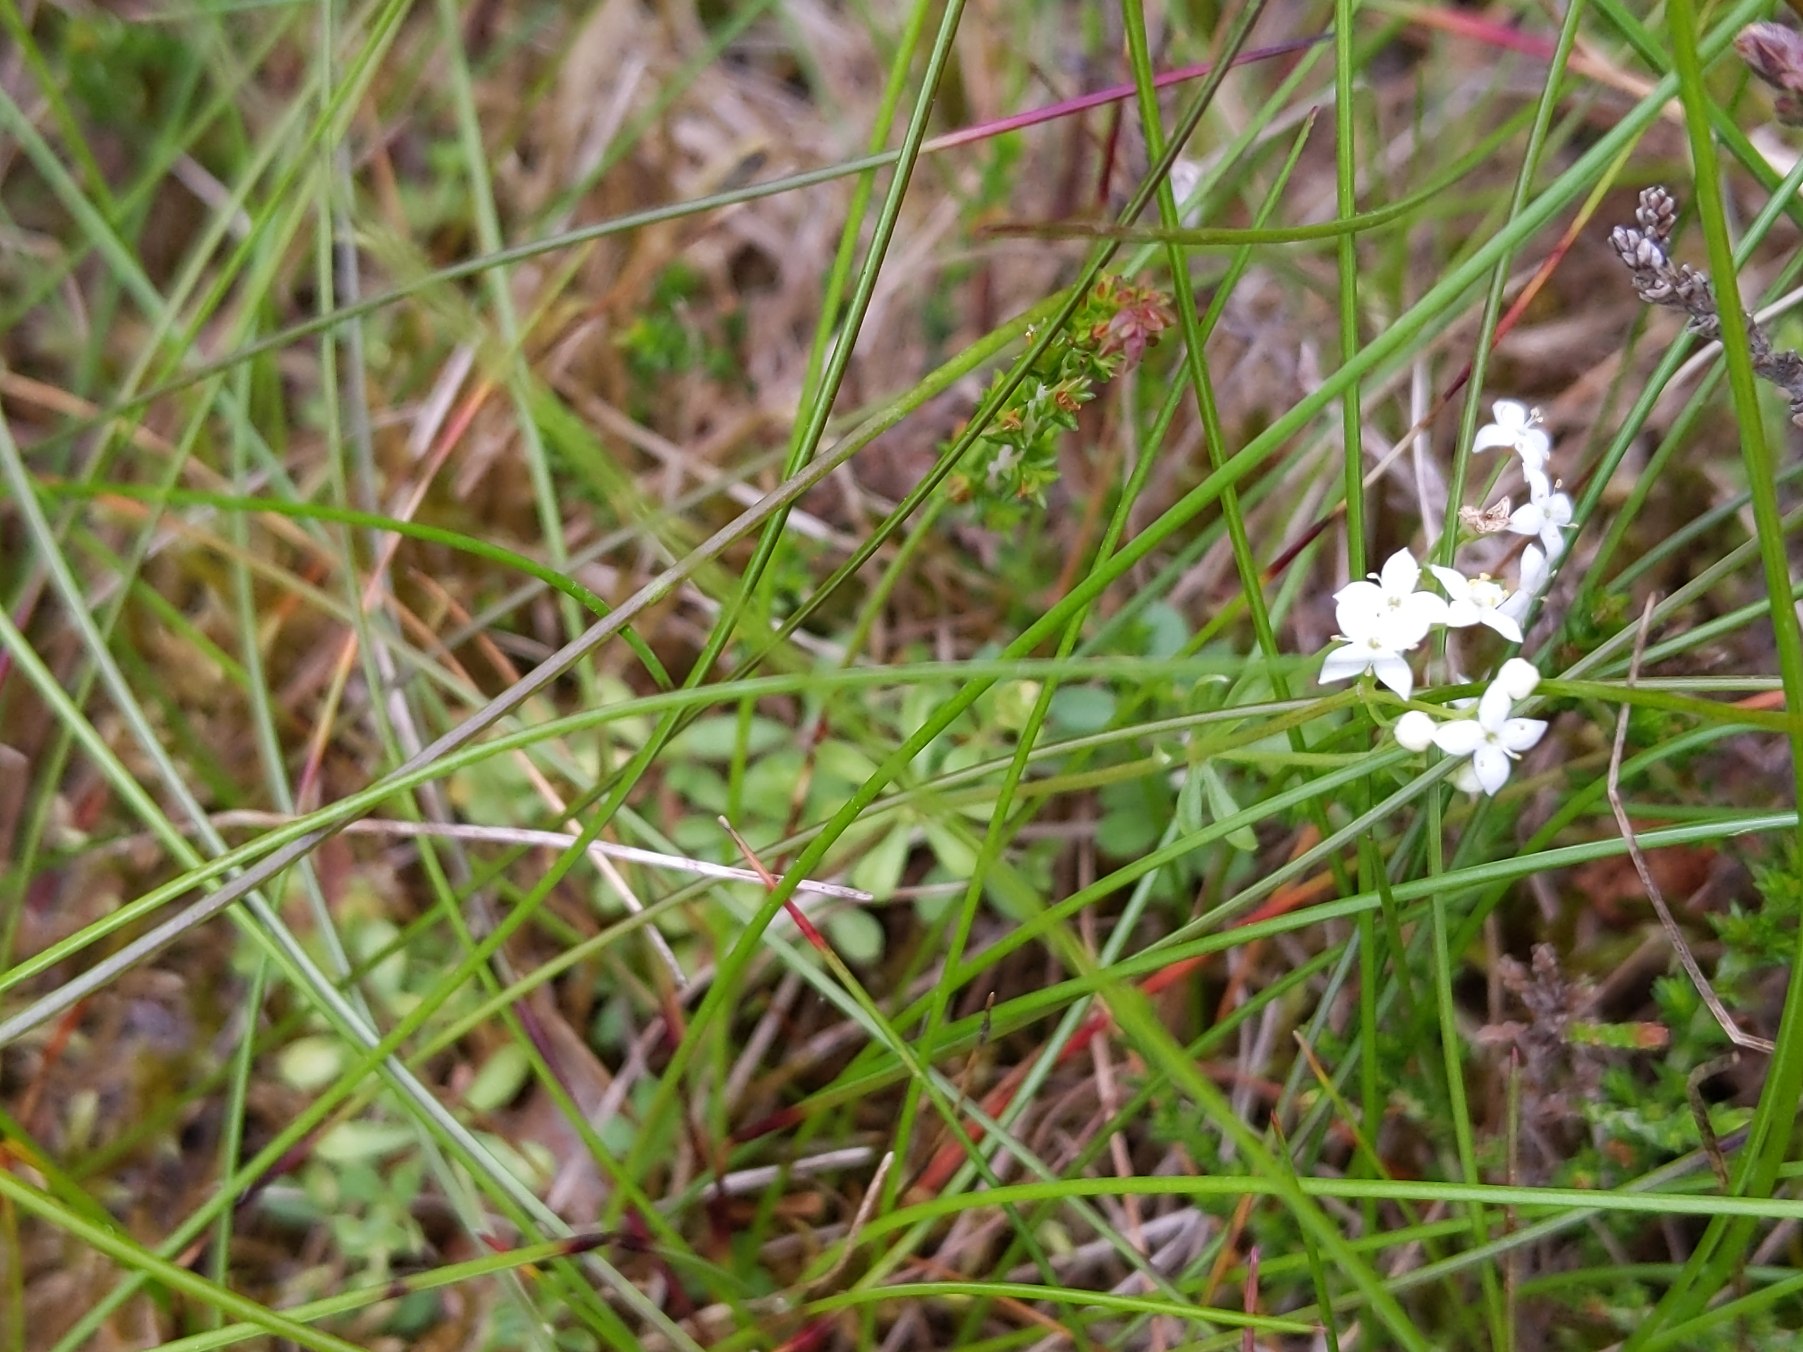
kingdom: Plantae
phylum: Tracheophyta
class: Magnoliopsida
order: Gentianales
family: Rubiaceae
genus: Galium
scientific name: Galium saxatile
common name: Lyng-snerre
